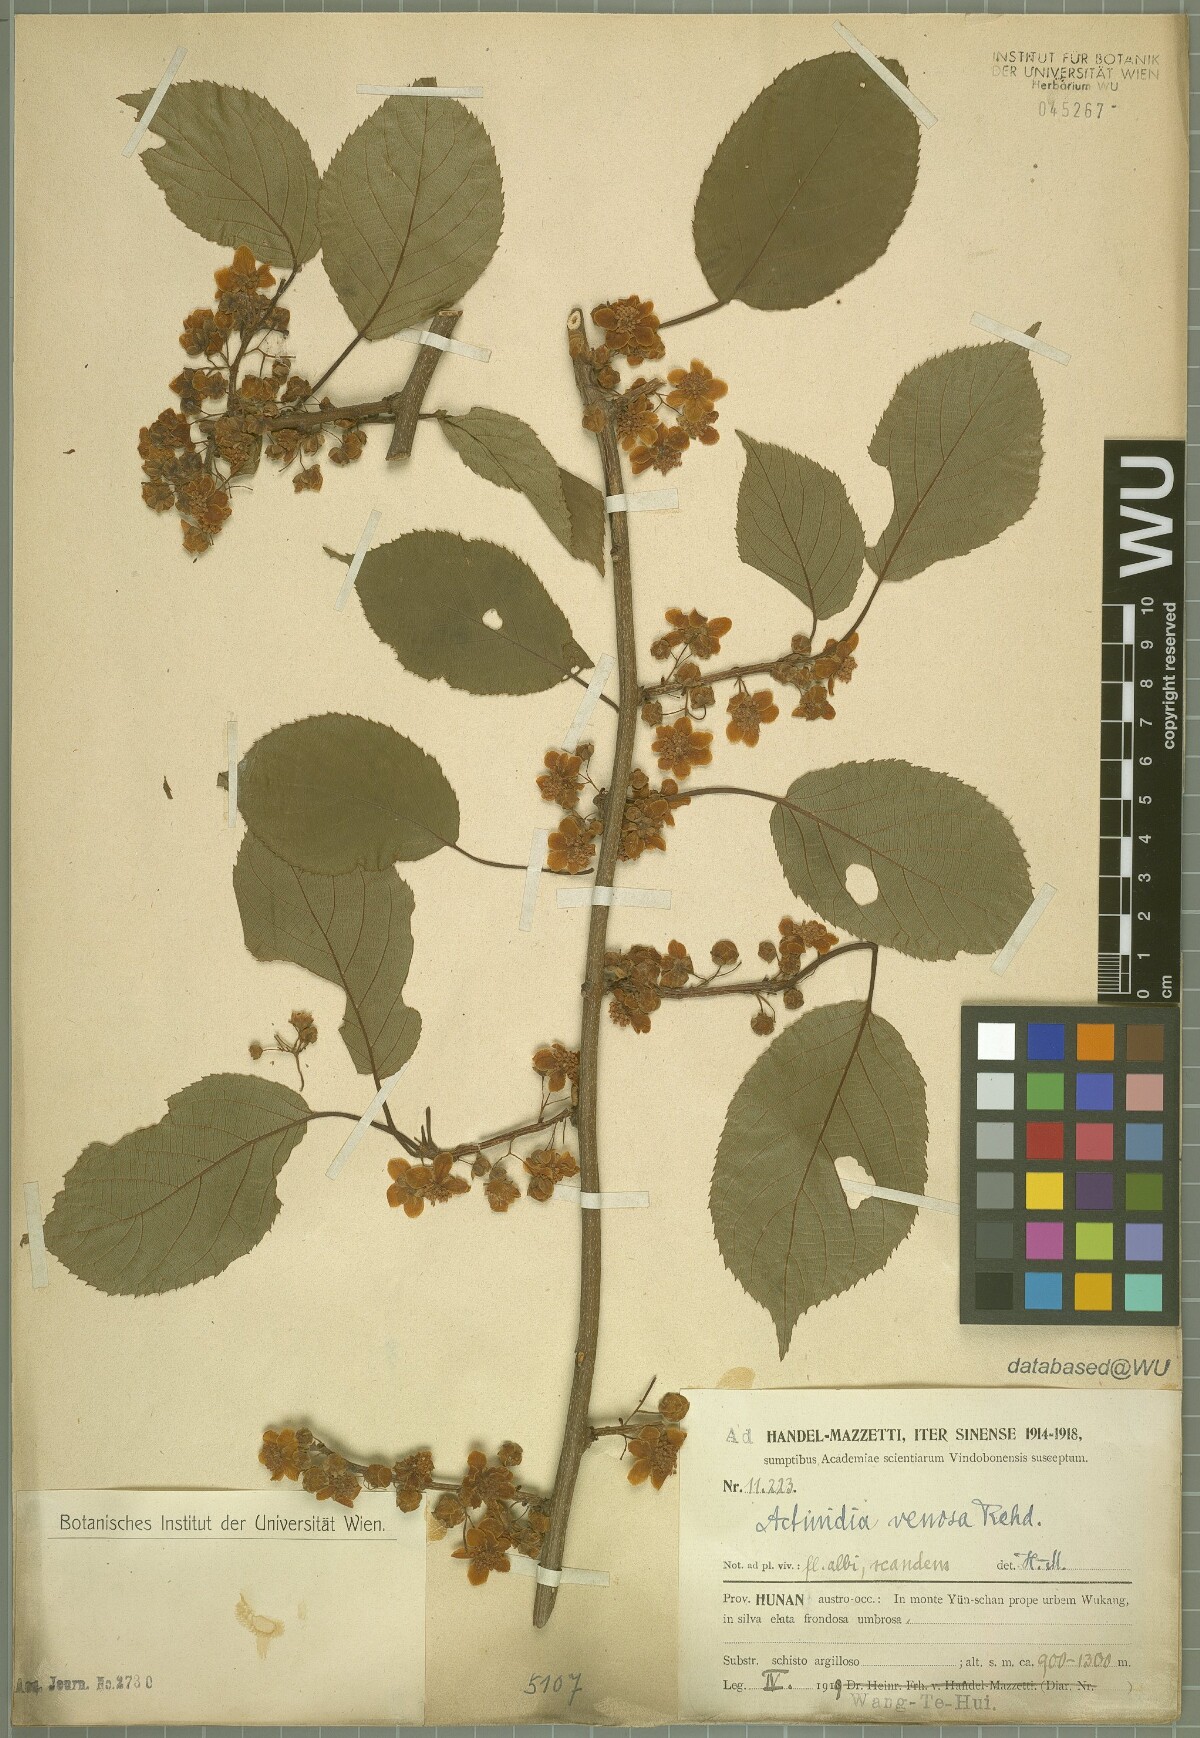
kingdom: Plantae
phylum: Tracheophyta
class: Magnoliopsida
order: Ericales
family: Actinidiaceae
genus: Actinidia
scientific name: Actinidia venosa
